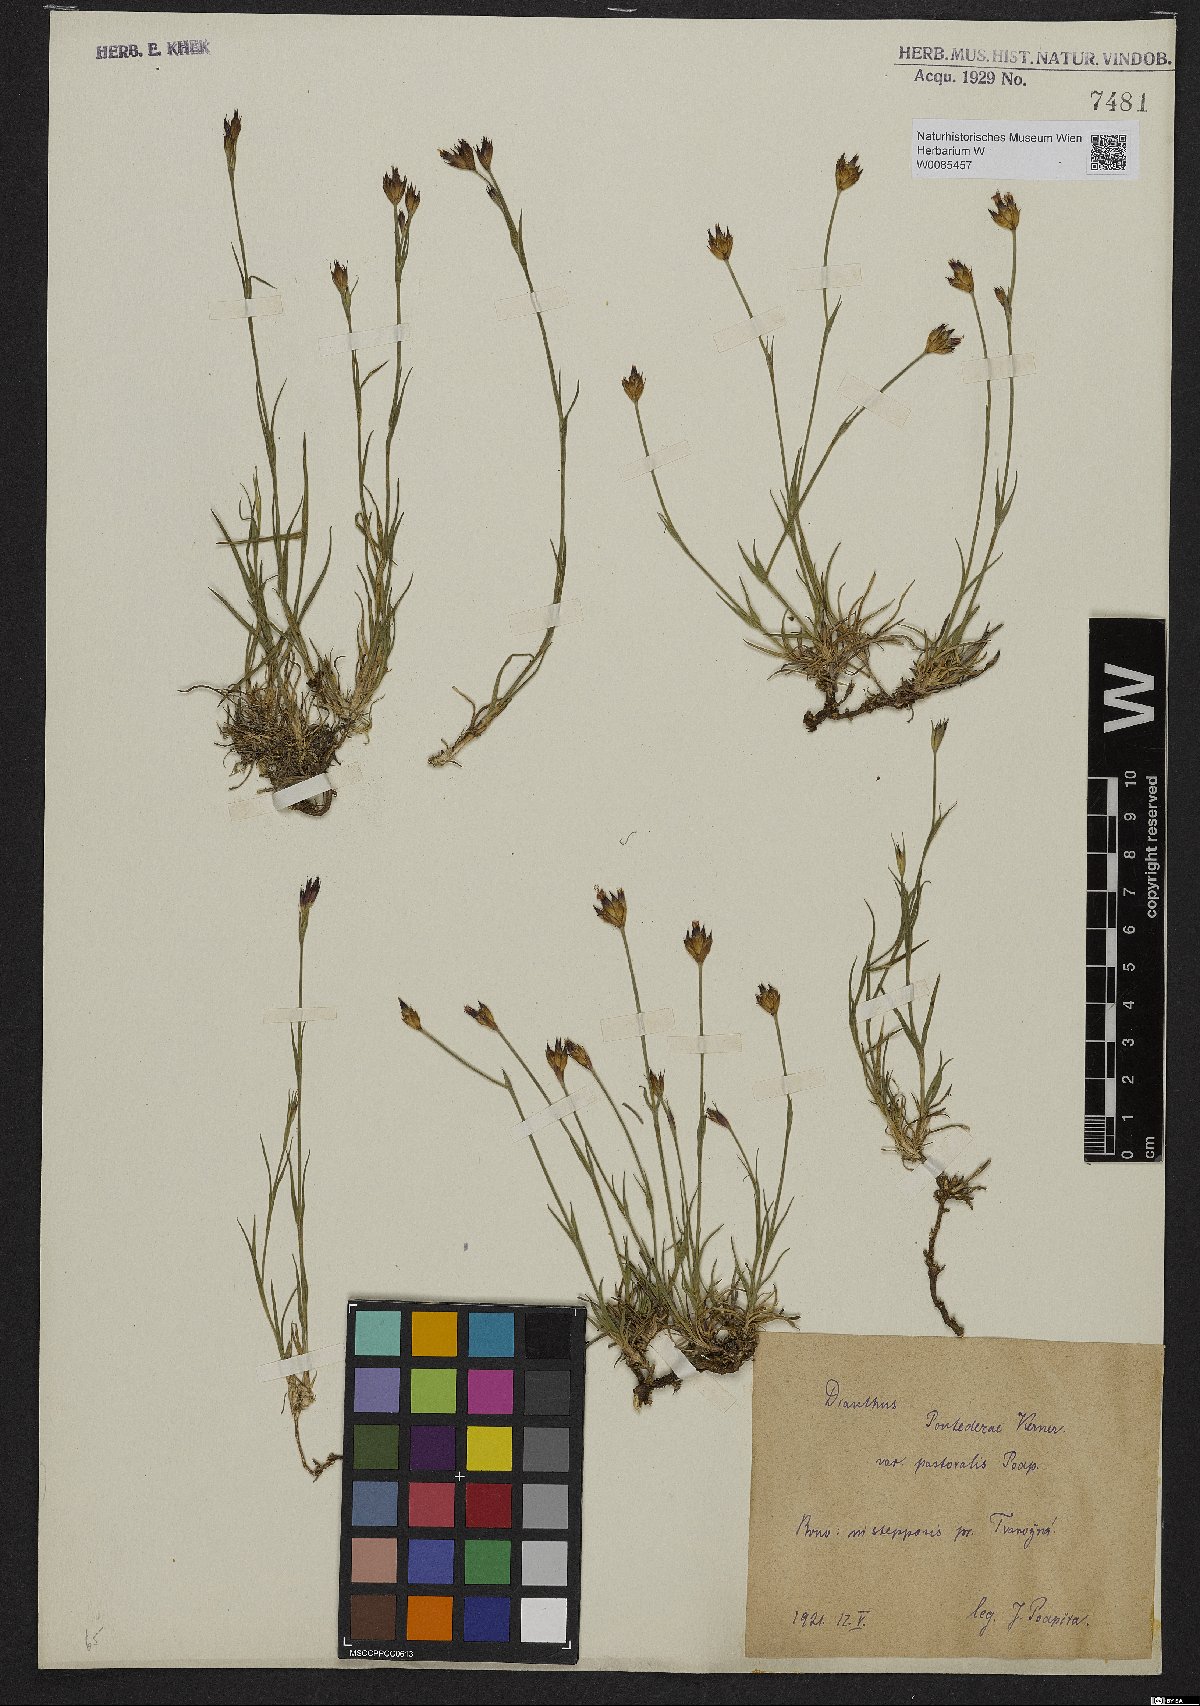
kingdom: Plantae
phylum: Tracheophyta
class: Magnoliopsida
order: Caryophyllales
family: Caryophyllaceae
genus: Dianthus
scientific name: Dianthus pontederae
